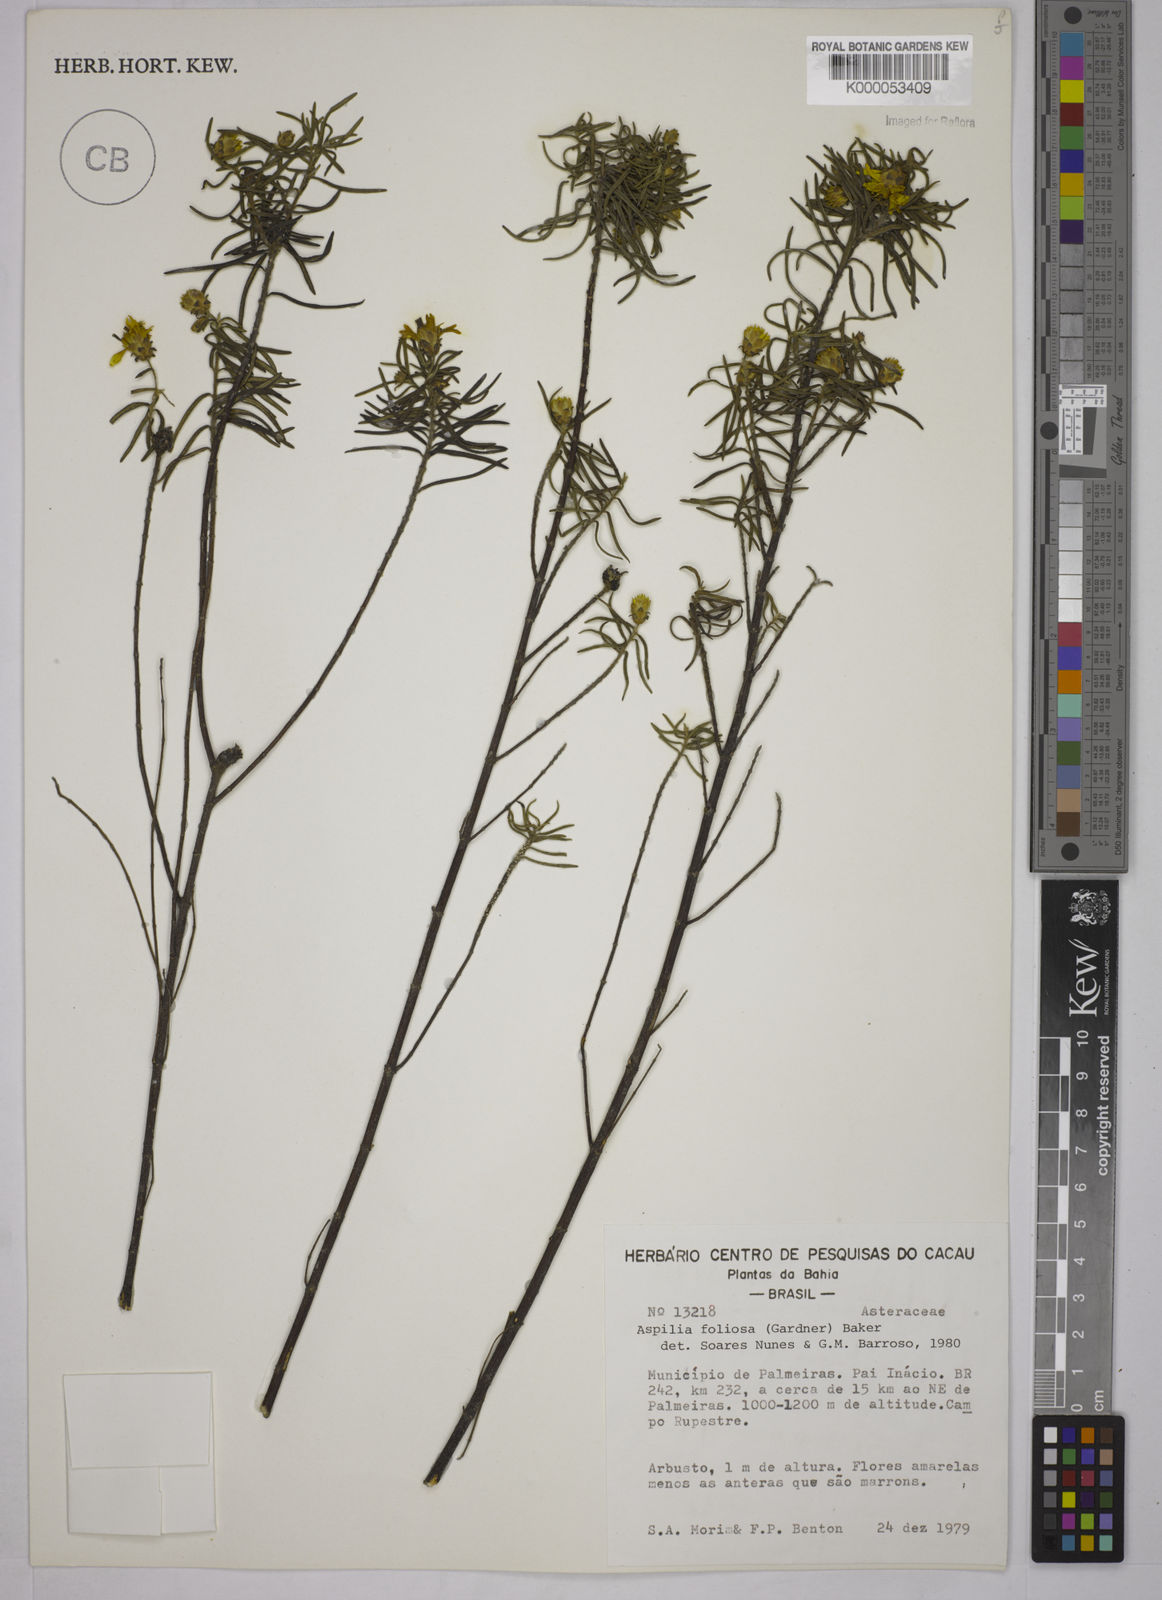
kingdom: Plantae
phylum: Tracheophyta
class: Magnoliopsida
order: Asterales
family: Asteraceae
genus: Aspilia
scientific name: Aspilia
